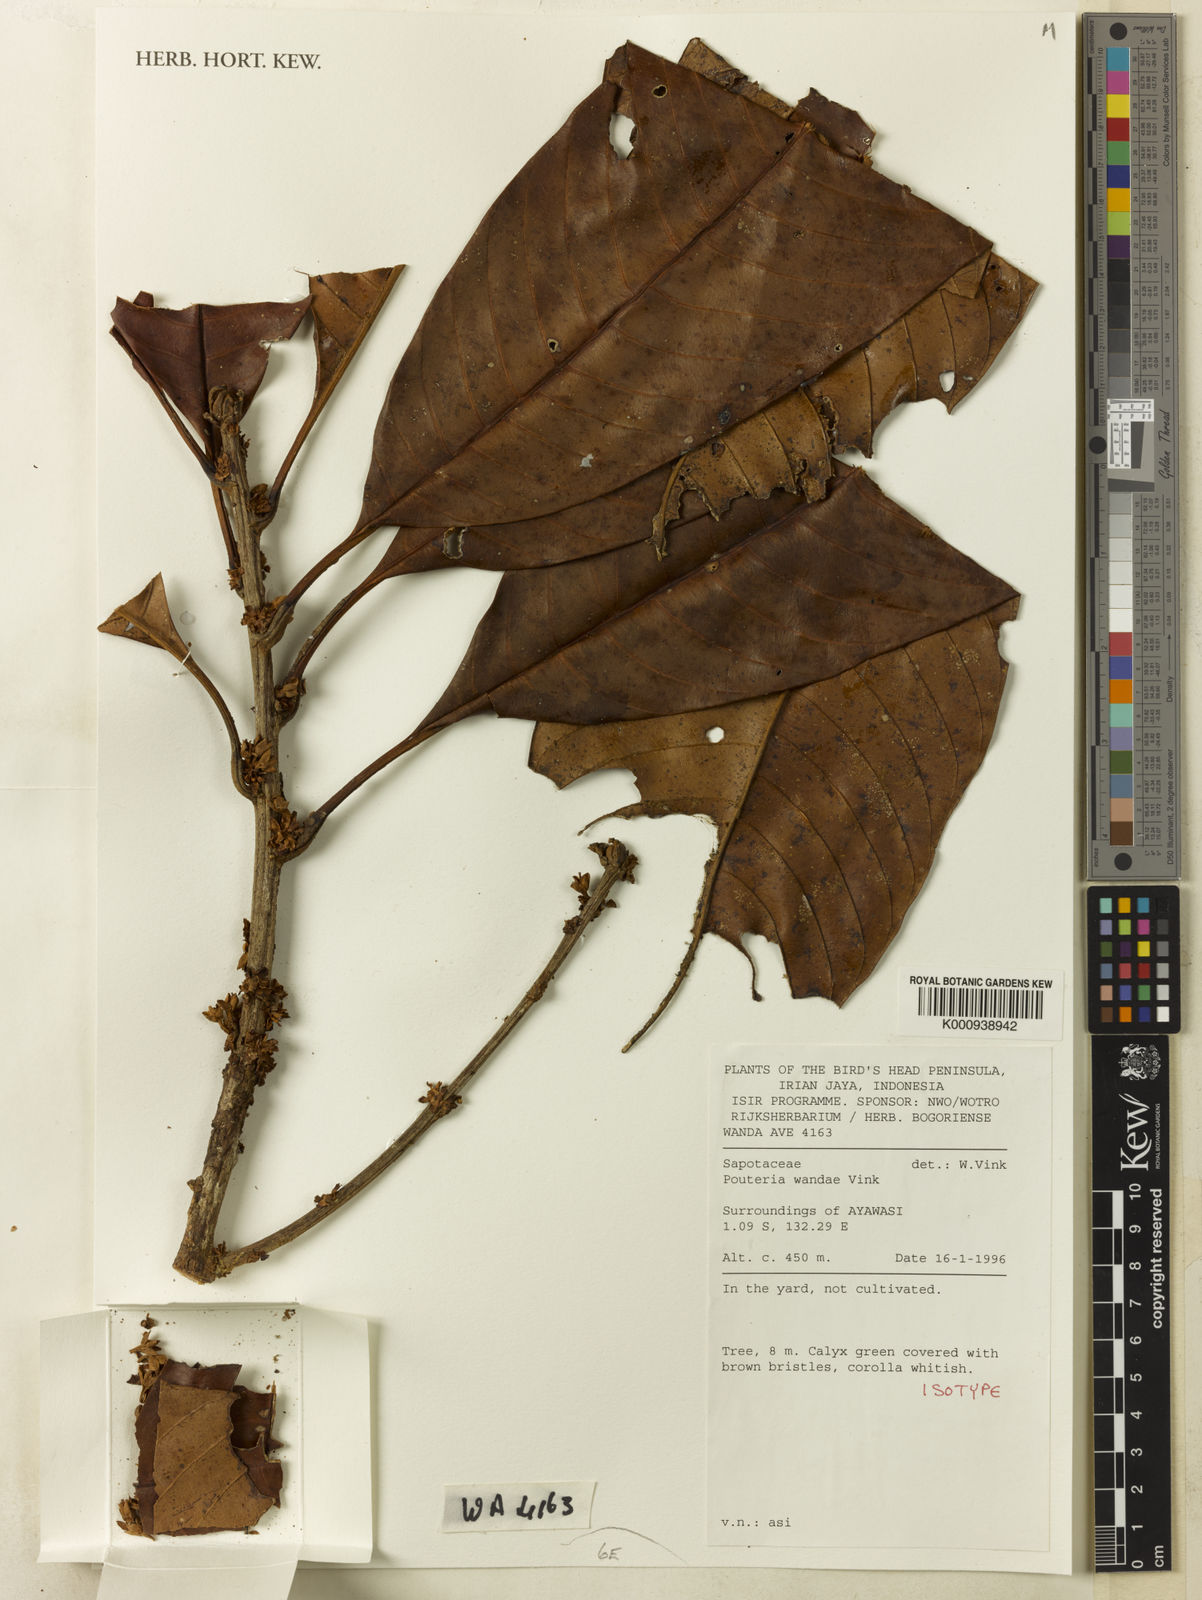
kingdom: Plantae
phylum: Tracheophyta
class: Magnoliopsida
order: Ericales
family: Sapotaceae
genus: Pleioluma
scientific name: Pleioluma wandae
